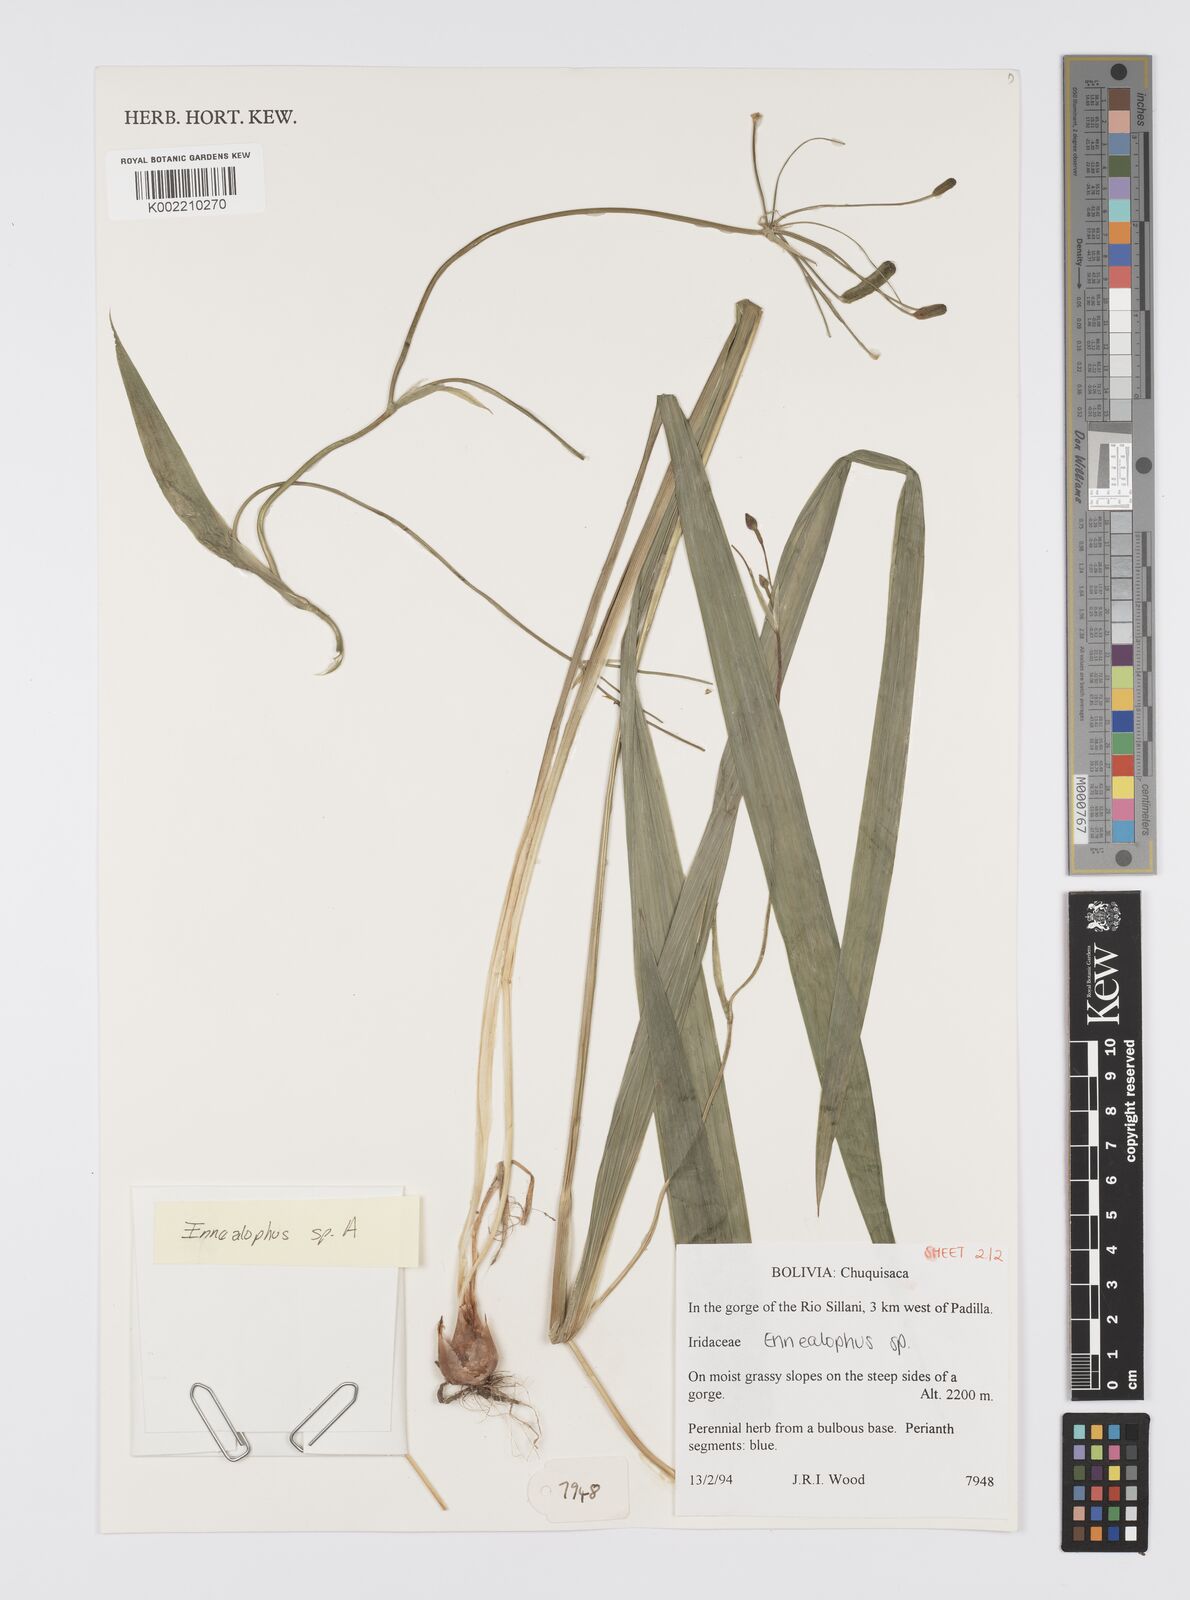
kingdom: Plantae
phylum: Tracheophyta
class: Liliopsida
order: Asparagales
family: Iridaceae
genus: Ennealophus
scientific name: Ennealophus euryandrus
